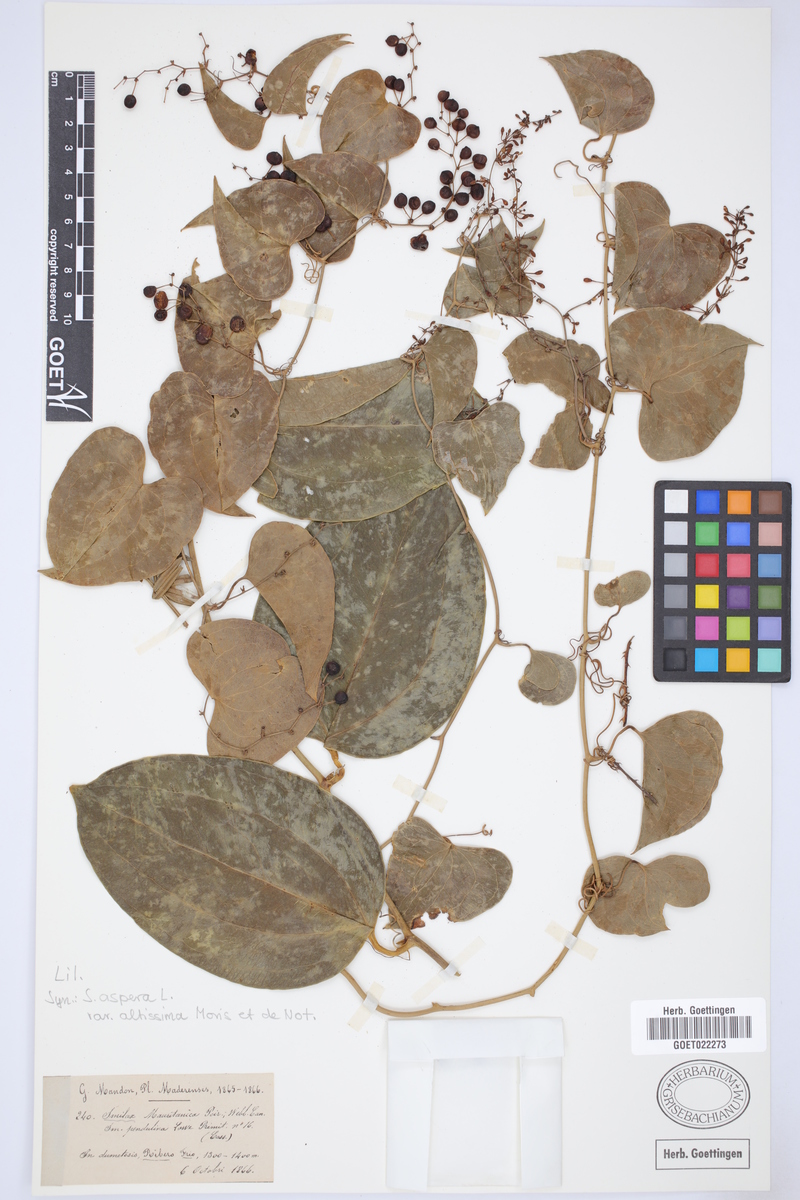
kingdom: Plantae
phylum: Tracheophyta
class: Liliopsida
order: Liliales
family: Smilacaceae
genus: Smilax
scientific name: Smilax aspera
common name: Common smilax
